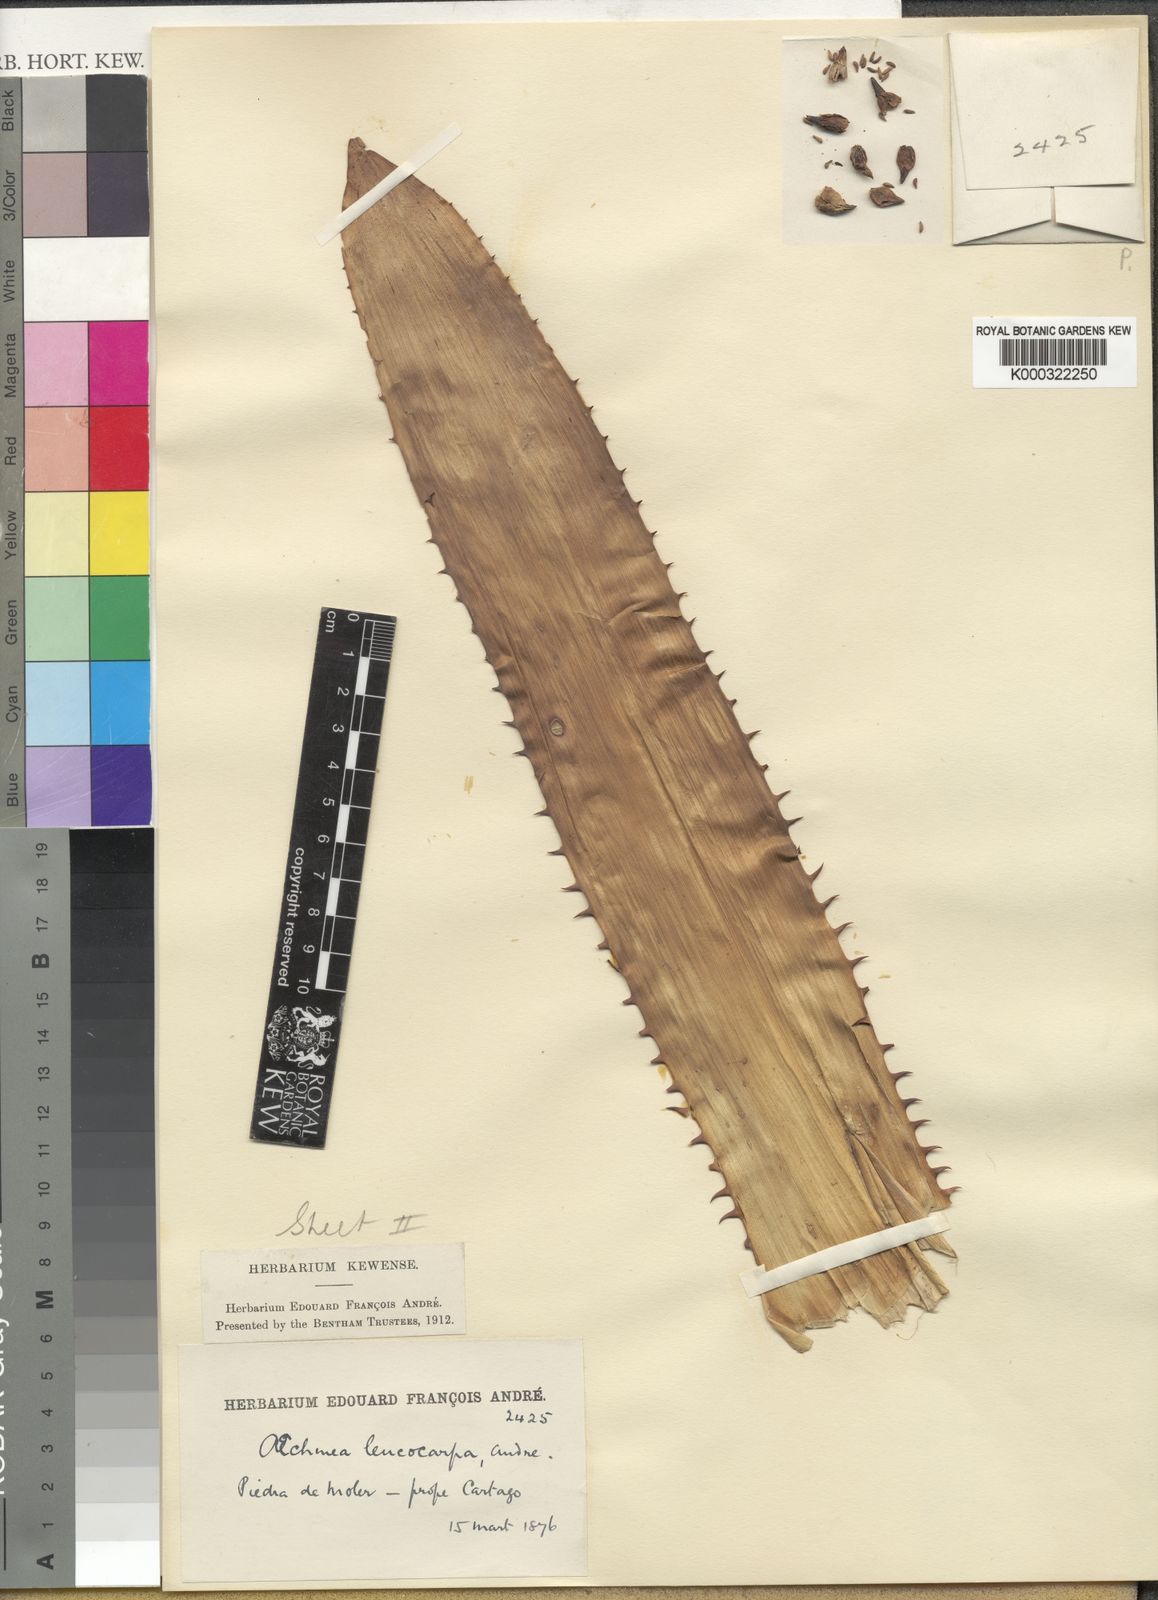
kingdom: Plantae
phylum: Tracheophyta
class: Liliopsida
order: Poales
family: Bromeliaceae
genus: Aechmea
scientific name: Aechmea
